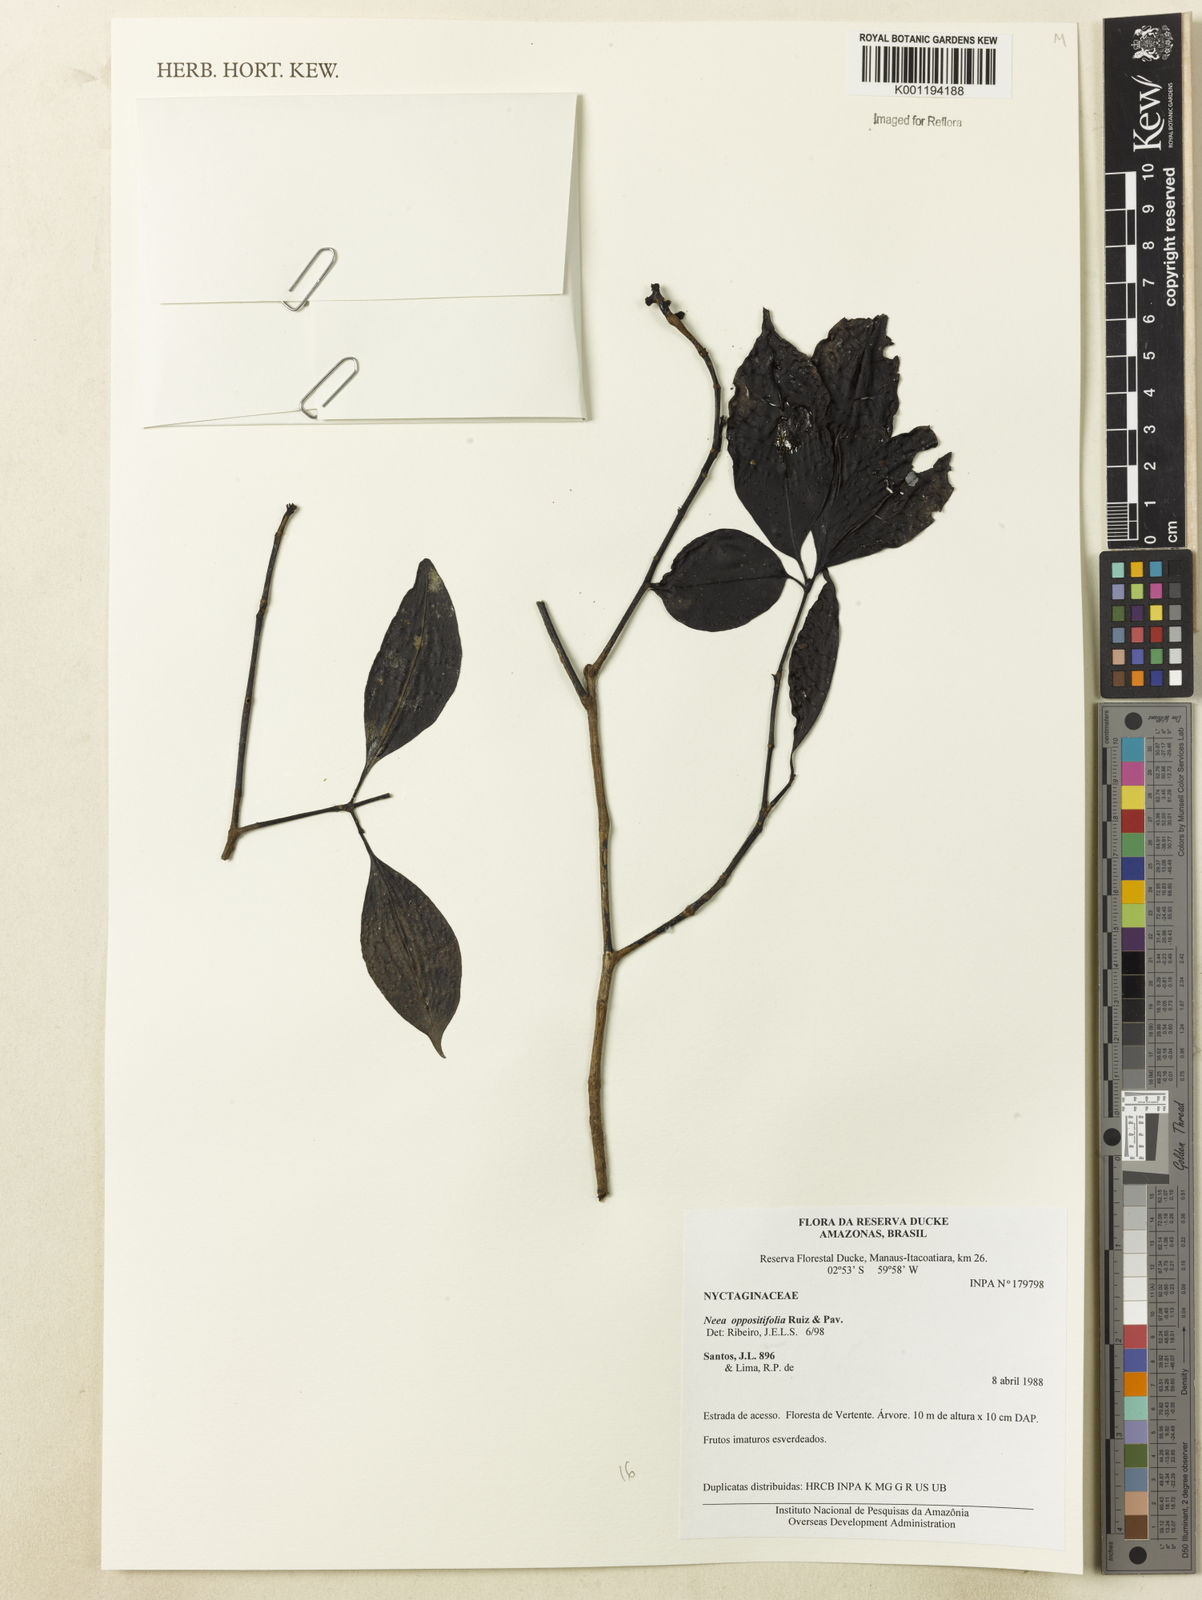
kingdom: Plantae
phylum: Tracheophyta
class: Magnoliopsida
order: Caryophyllales
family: Nyctaginaceae
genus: Neea
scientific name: Neea oppositifolia
